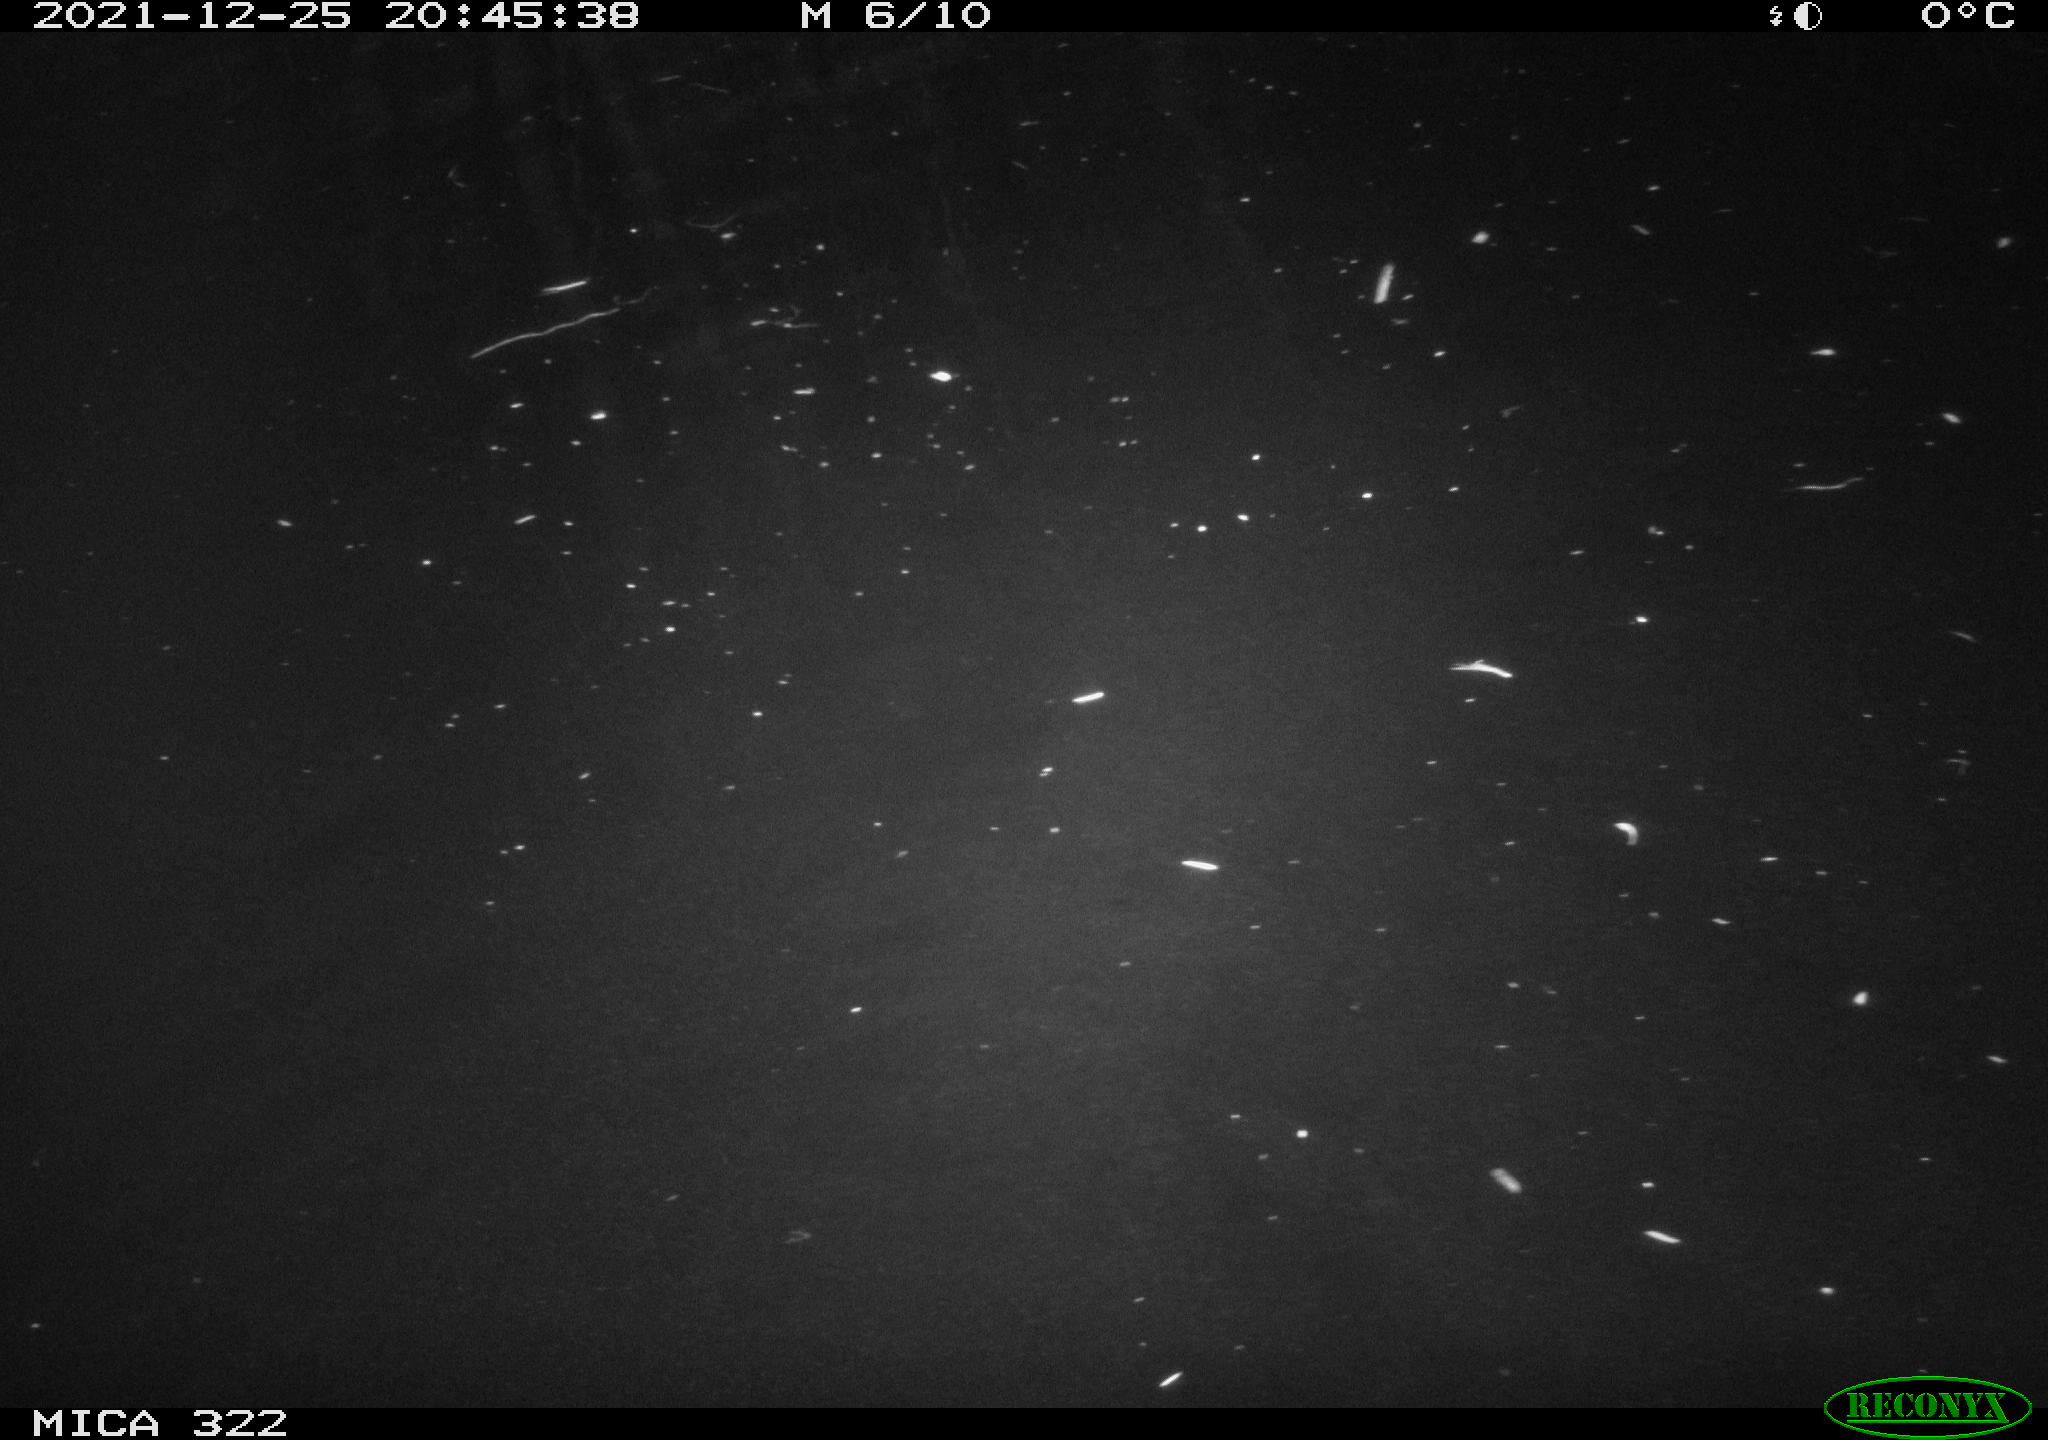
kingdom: Animalia
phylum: Chordata
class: Mammalia
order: Rodentia
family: Muridae
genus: Rattus
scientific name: Rattus norvegicus
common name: Brown rat
